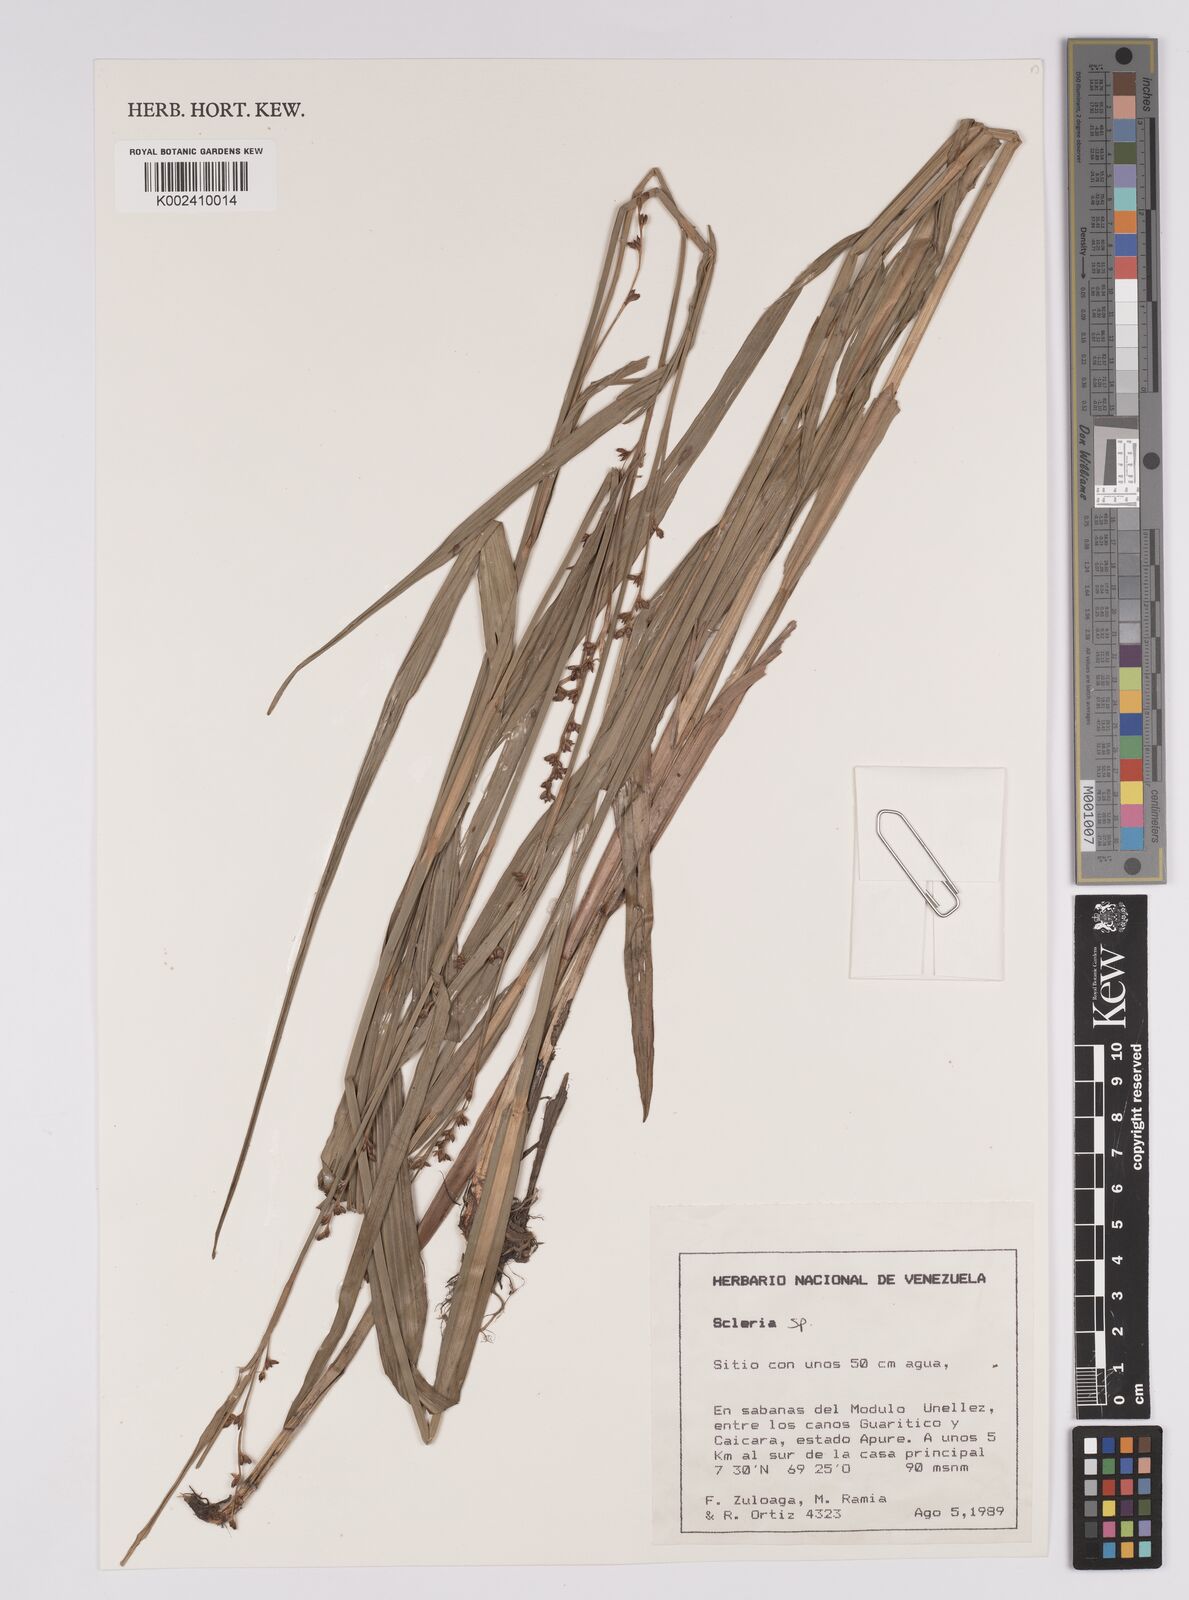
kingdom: Plantae
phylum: Tracheophyta
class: Liliopsida
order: Poales
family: Cyperaceae
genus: Scleria
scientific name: Scleria
